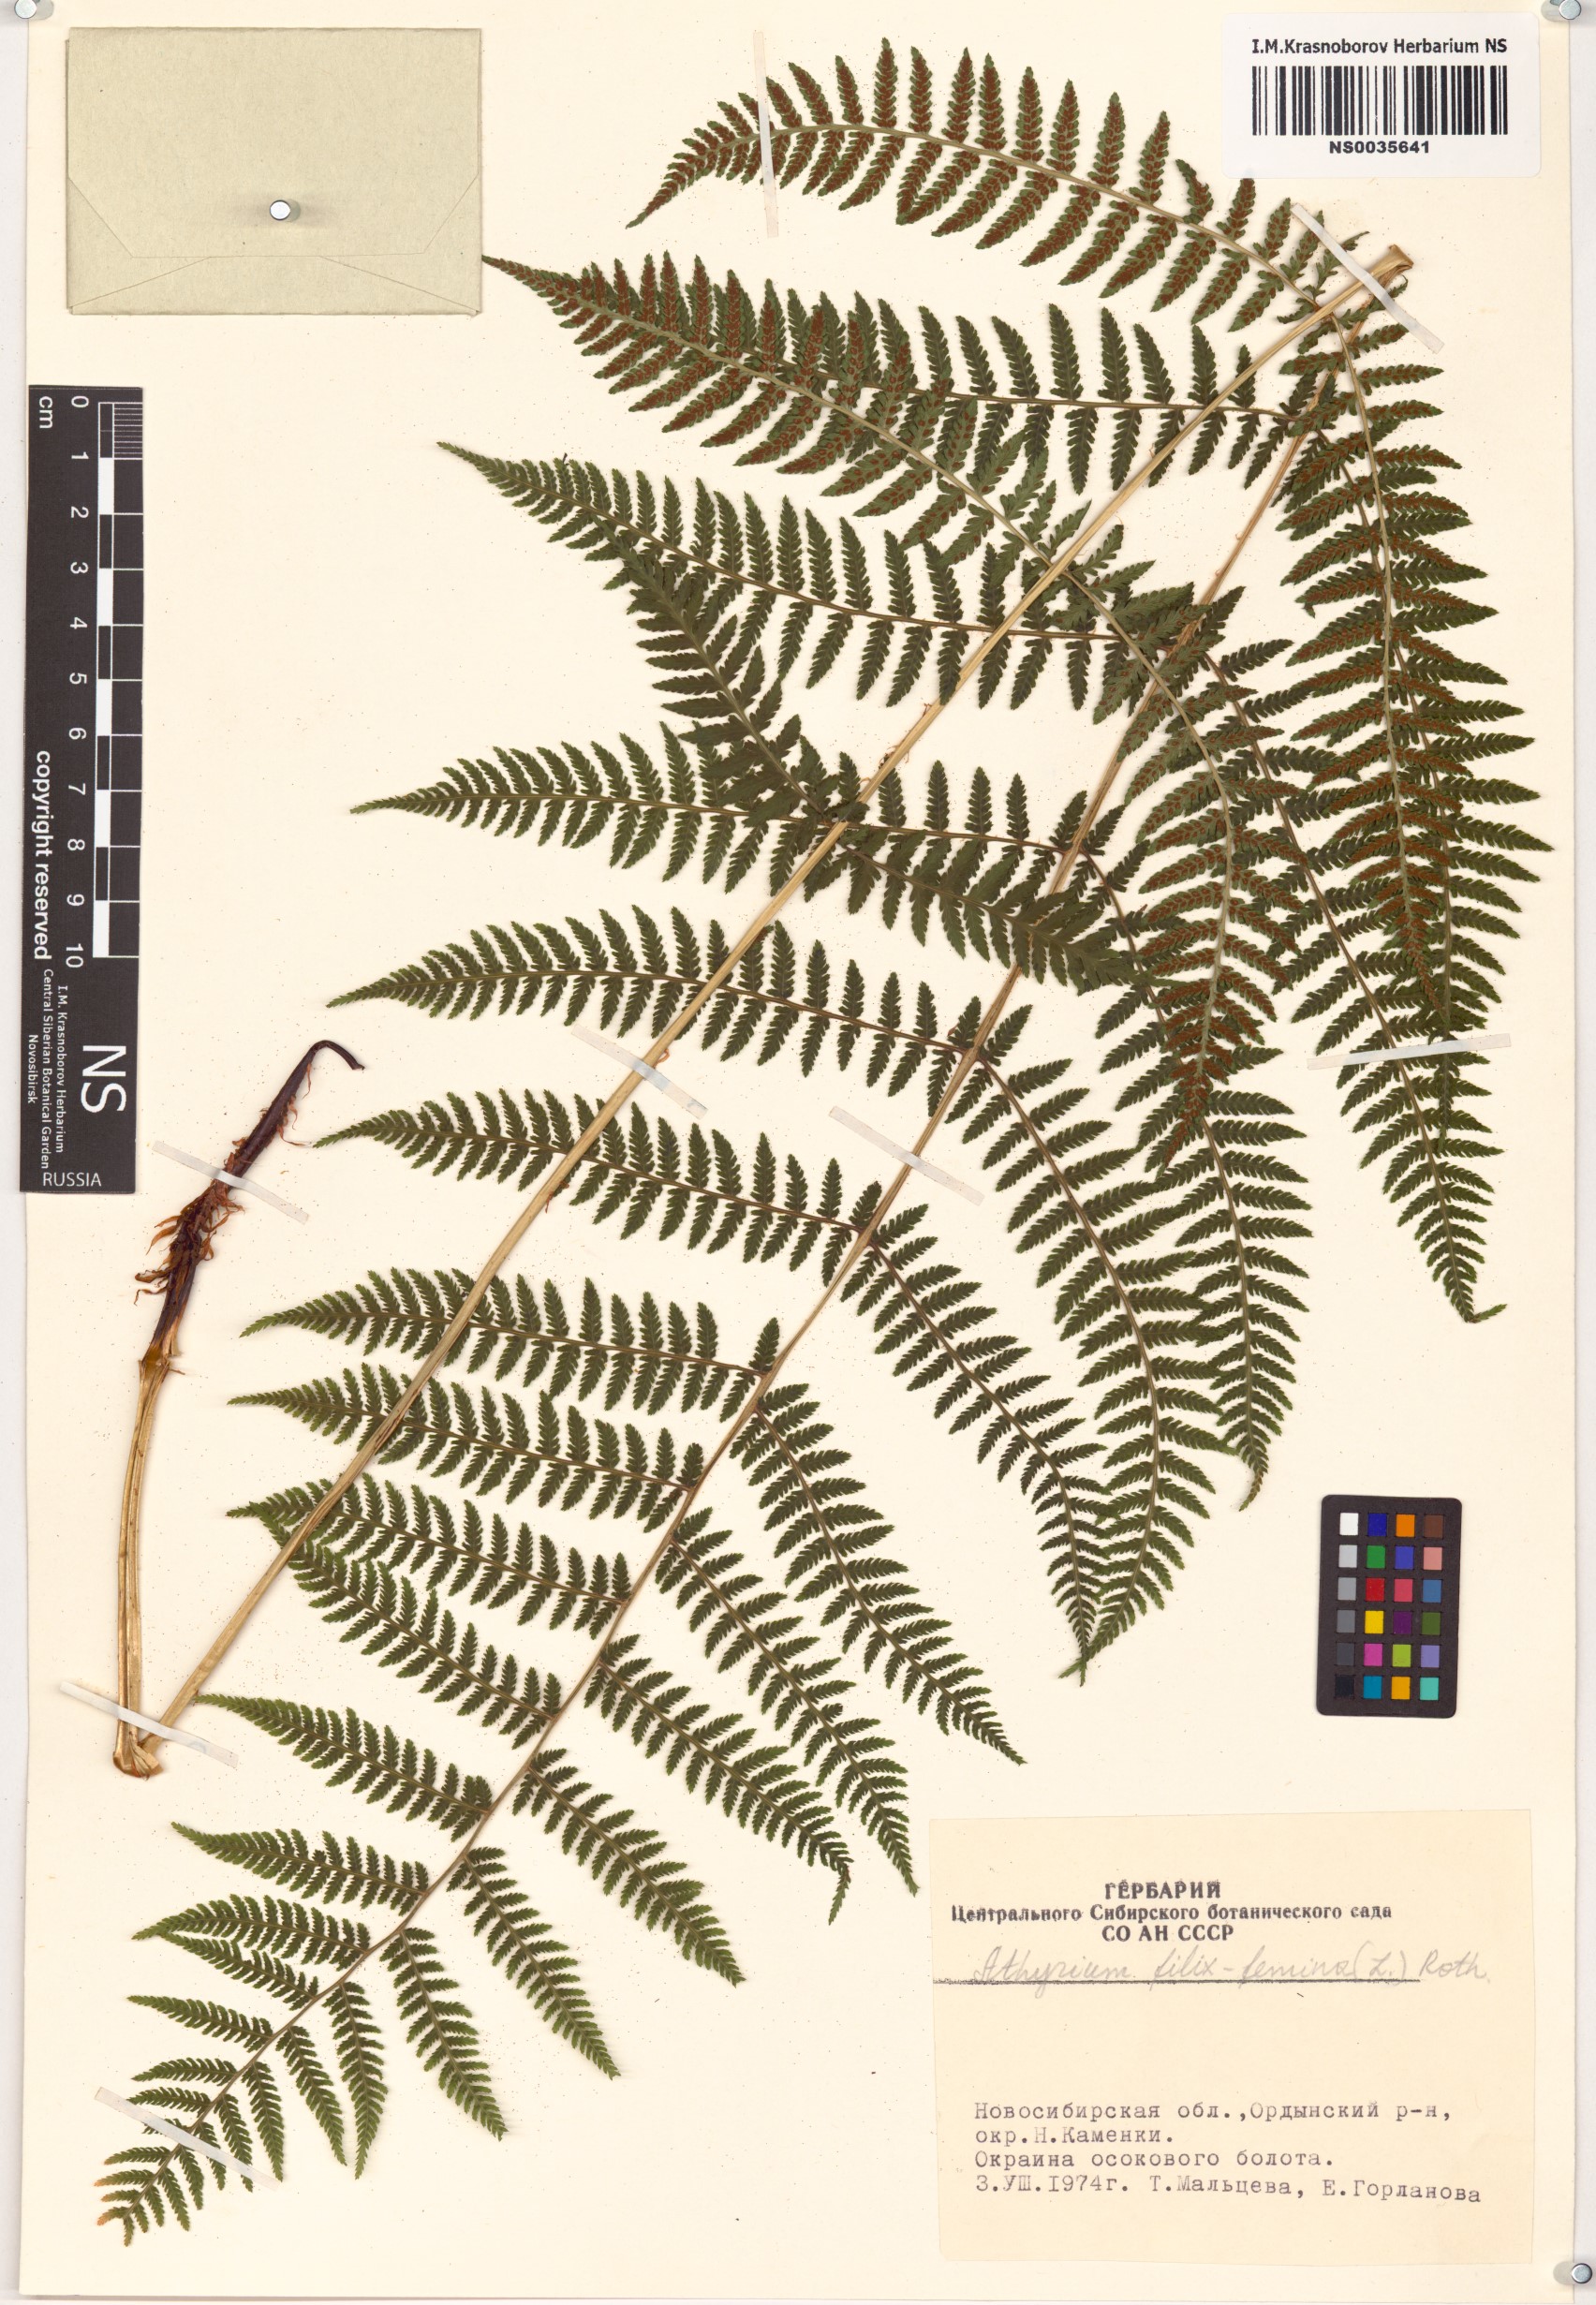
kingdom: Plantae
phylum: Tracheophyta
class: Polypodiopsida
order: Polypodiales
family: Athyriaceae
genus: Athyrium
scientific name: Athyrium filix-femina
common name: Lady fern
